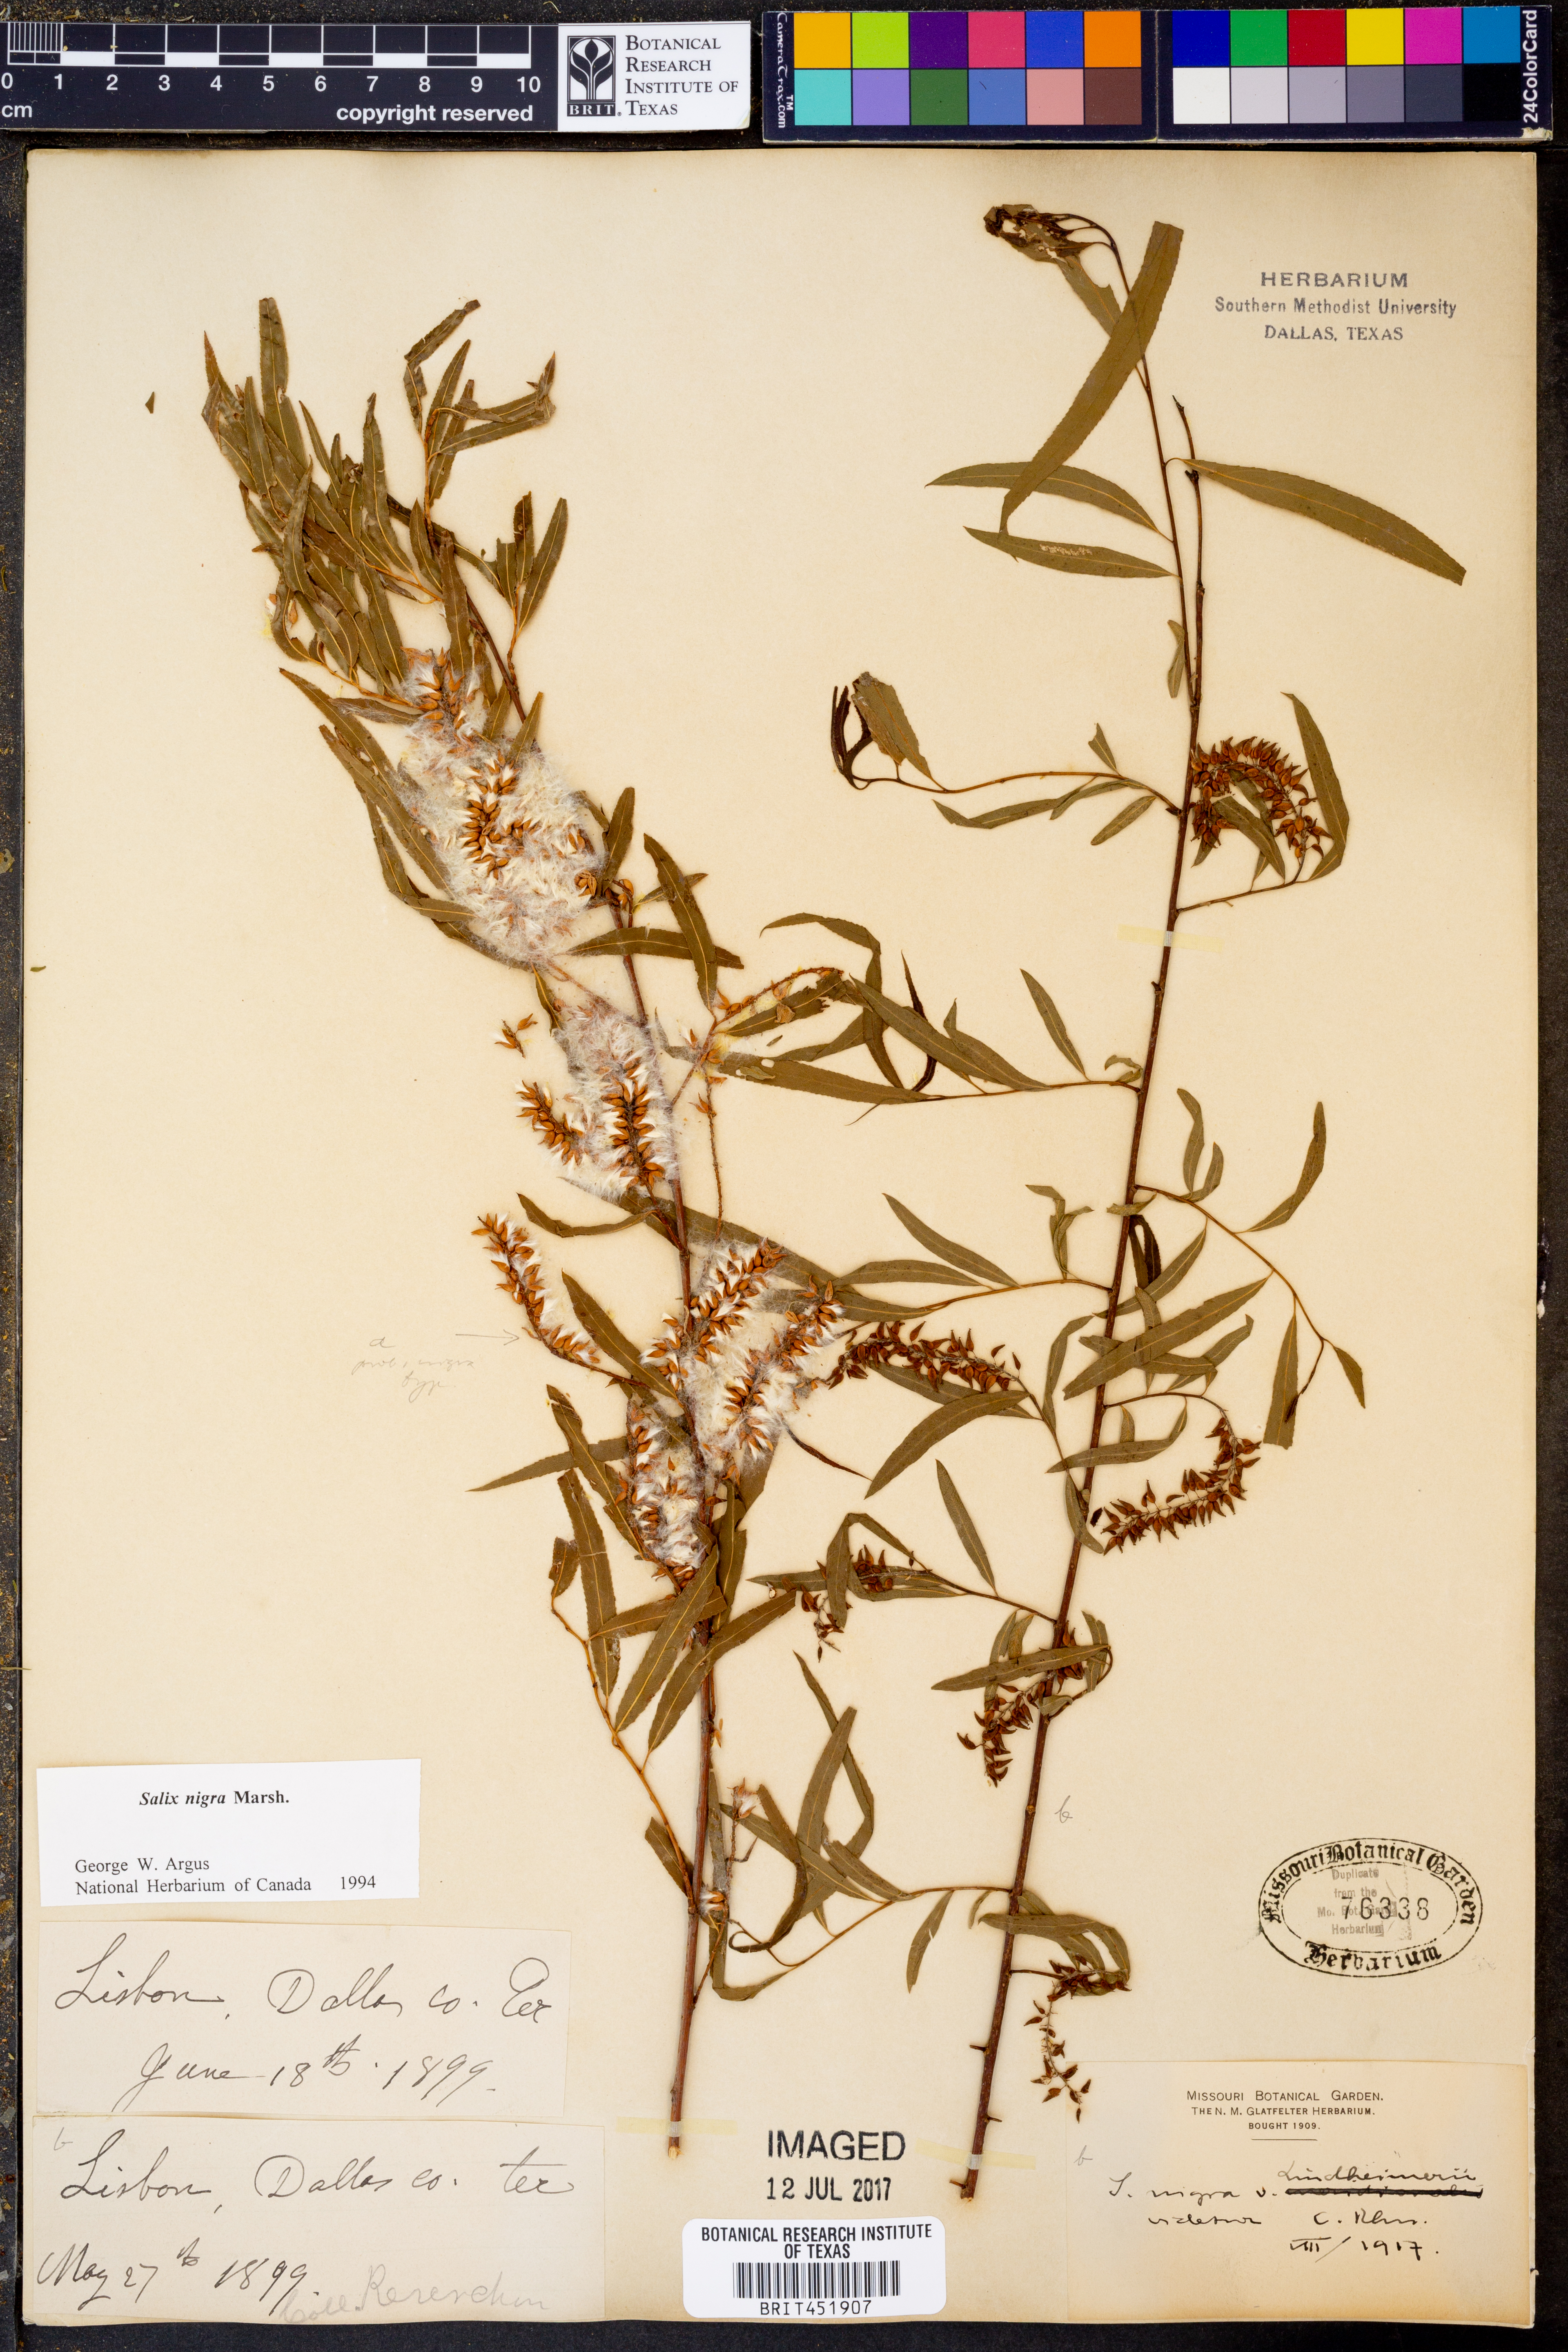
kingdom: Plantae
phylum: Tracheophyta
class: Magnoliopsida
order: Malpighiales
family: Salicaceae
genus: Salix
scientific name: Salix nigra
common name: Black willow
